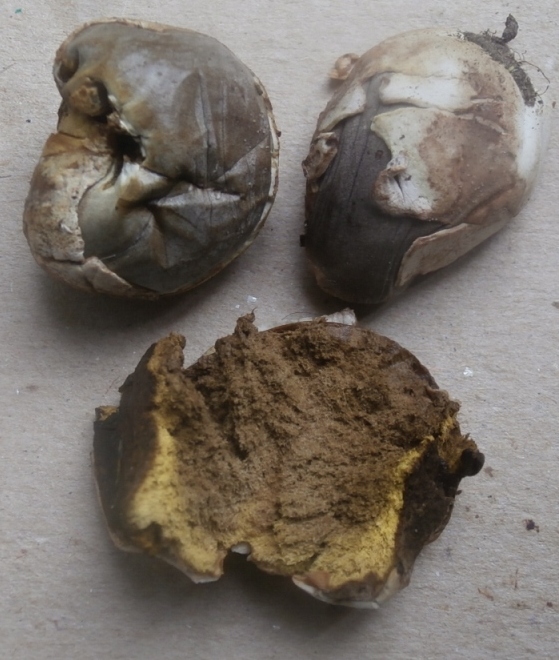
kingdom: Fungi
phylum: Basidiomycota
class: Agaricomycetes
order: Agaricales
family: Lycoperdaceae
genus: Bovista
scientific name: Bovista plumbea
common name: blygrå bovist
